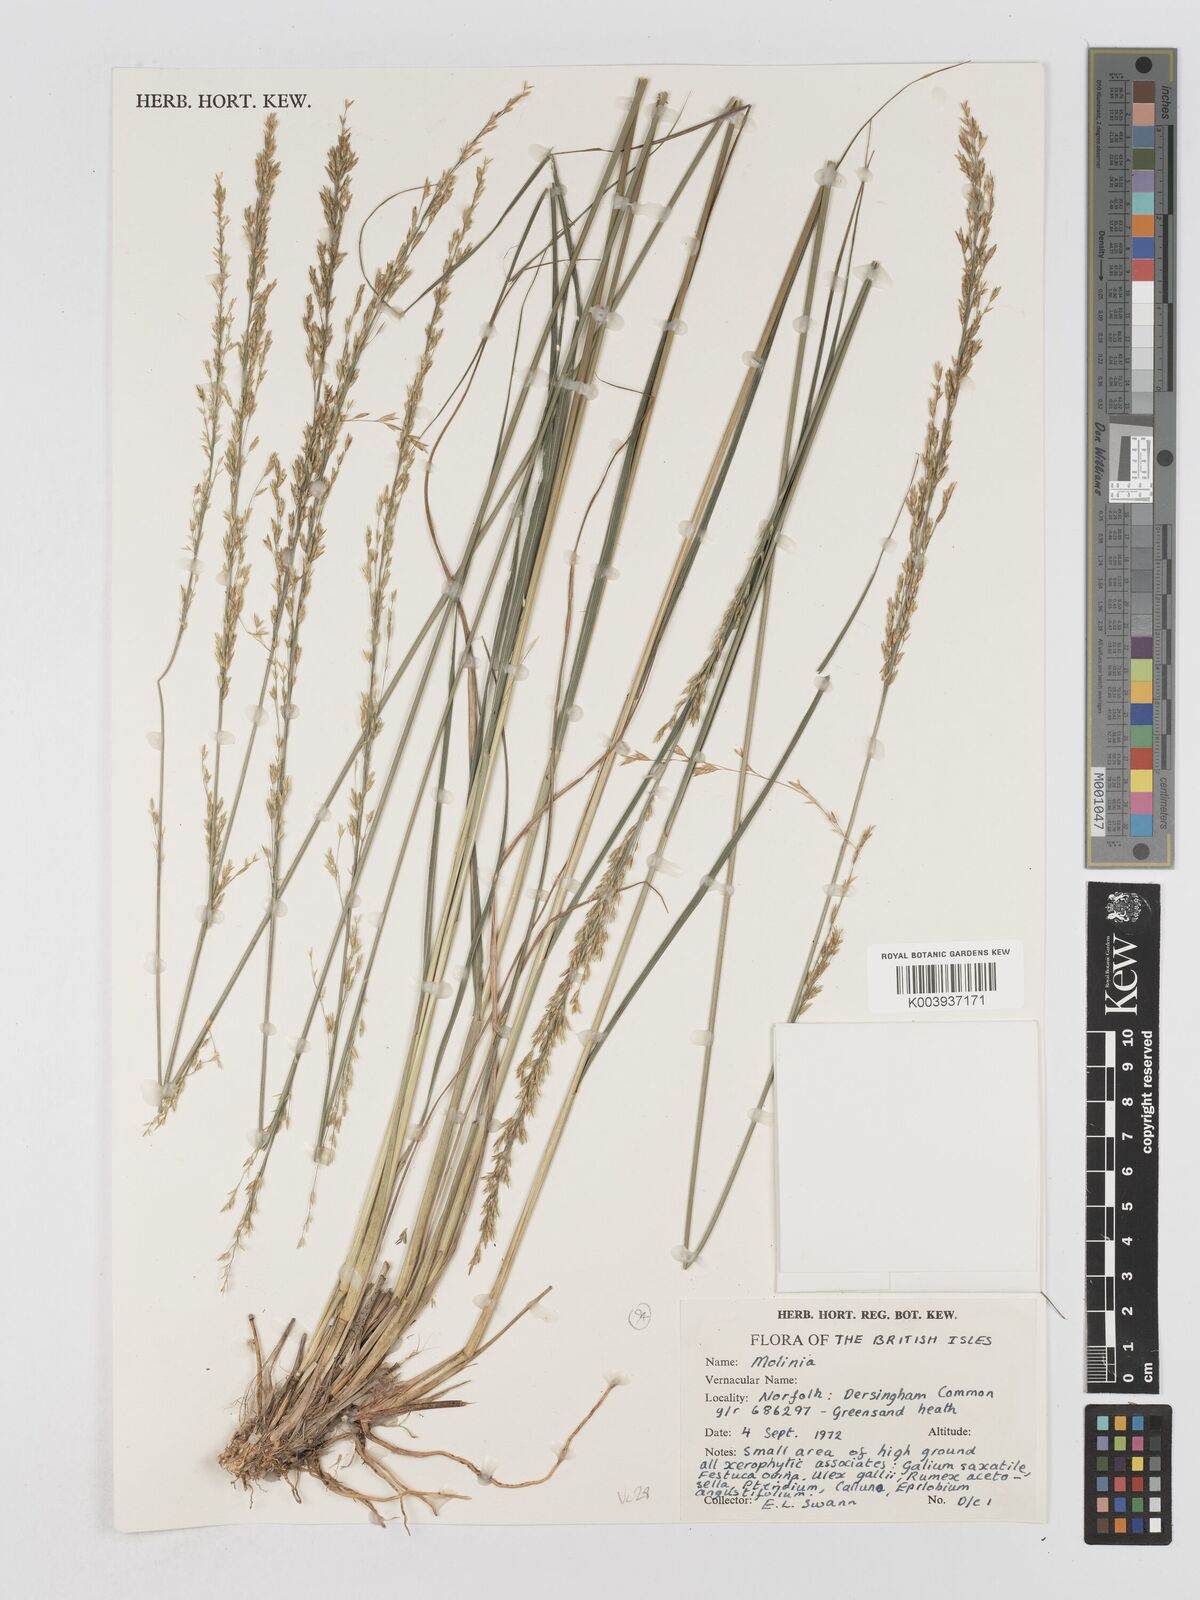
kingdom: Plantae
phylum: Tracheophyta
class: Liliopsida
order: Poales
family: Poaceae
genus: Molinia
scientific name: Molinia caerulea
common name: Purple moor-grass
